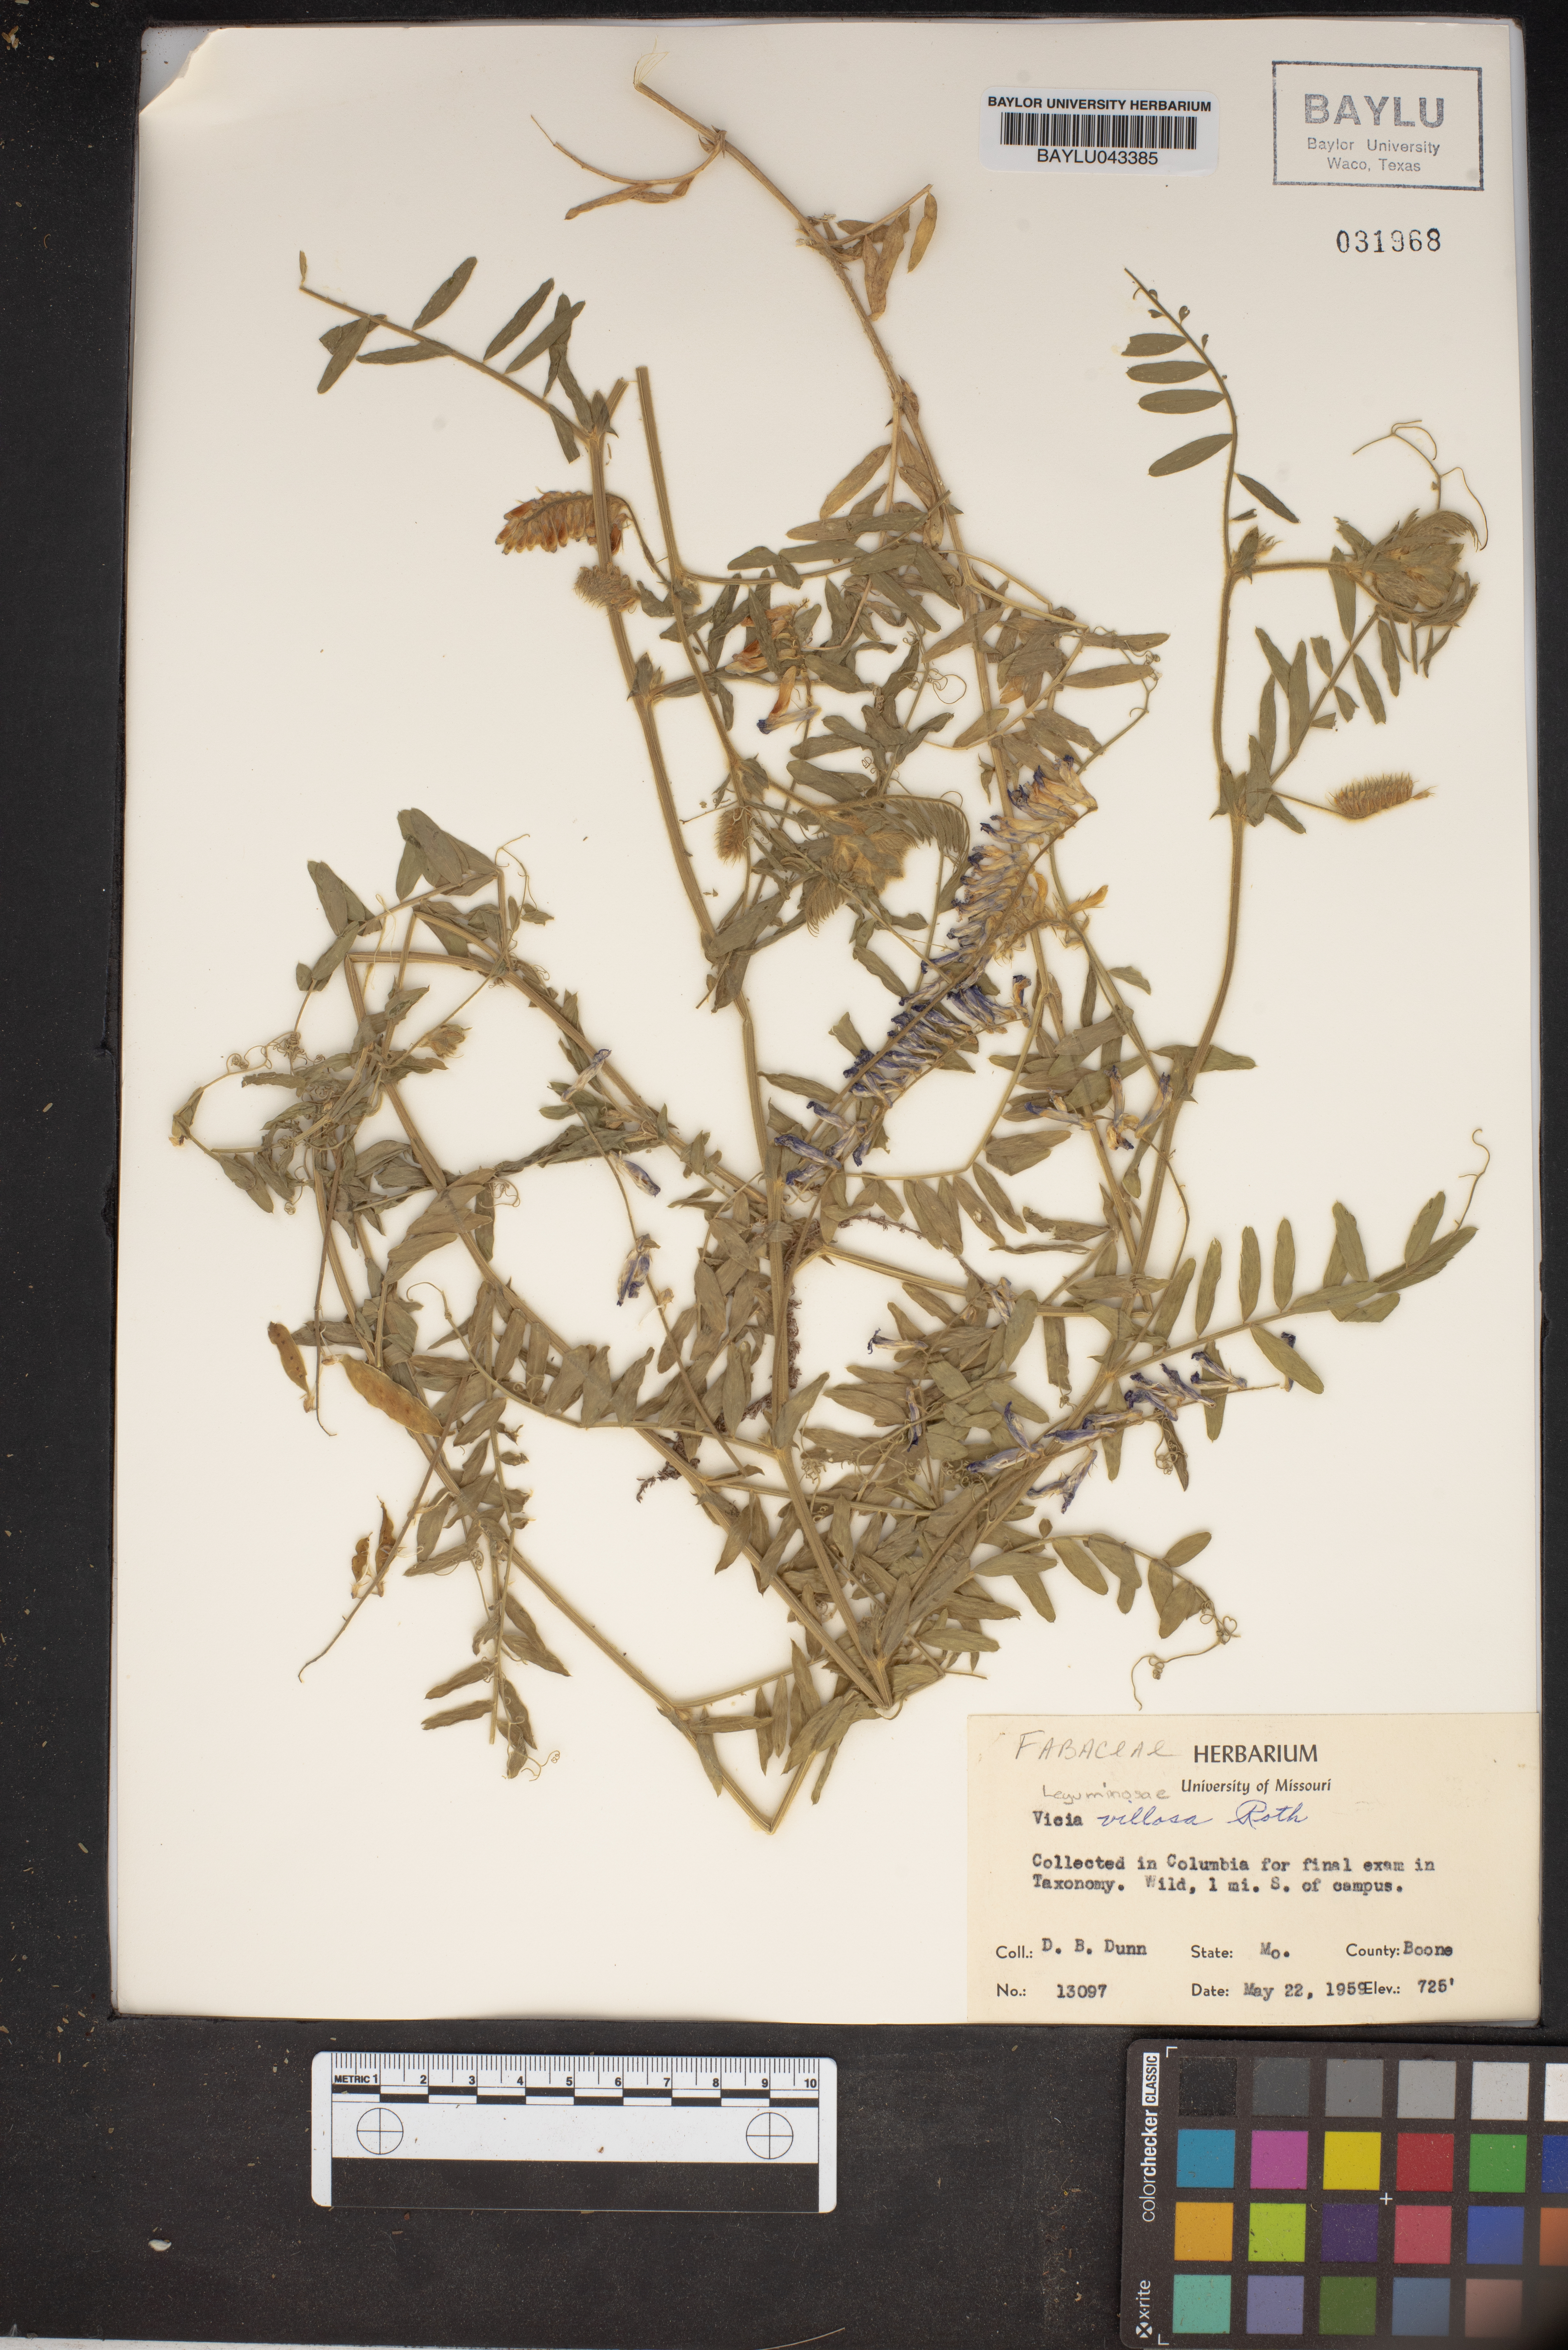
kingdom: Plantae
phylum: Tracheophyta
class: Magnoliopsida
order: Fabales
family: Fabaceae
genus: Vicia
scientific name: Vicia villosa
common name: Fodder vetch
